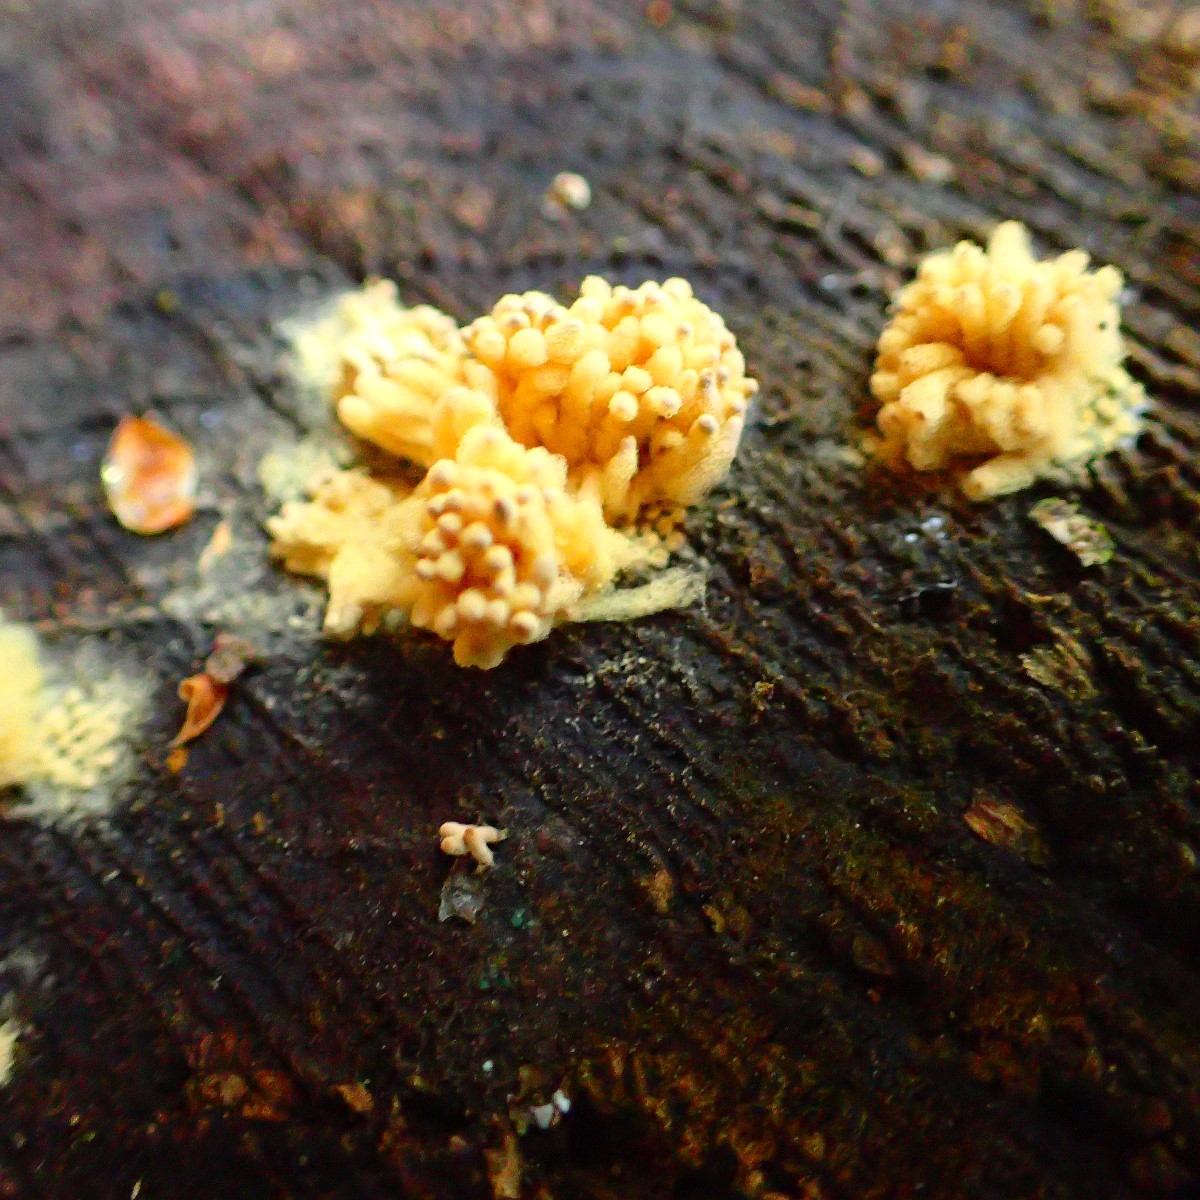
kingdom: Protozoa
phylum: Mycetozoa
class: Myxomycetes
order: Trichiales
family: Arcyriaceae
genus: Arcyria
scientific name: Arcyria obvelata
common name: okkergul skålsvøb
